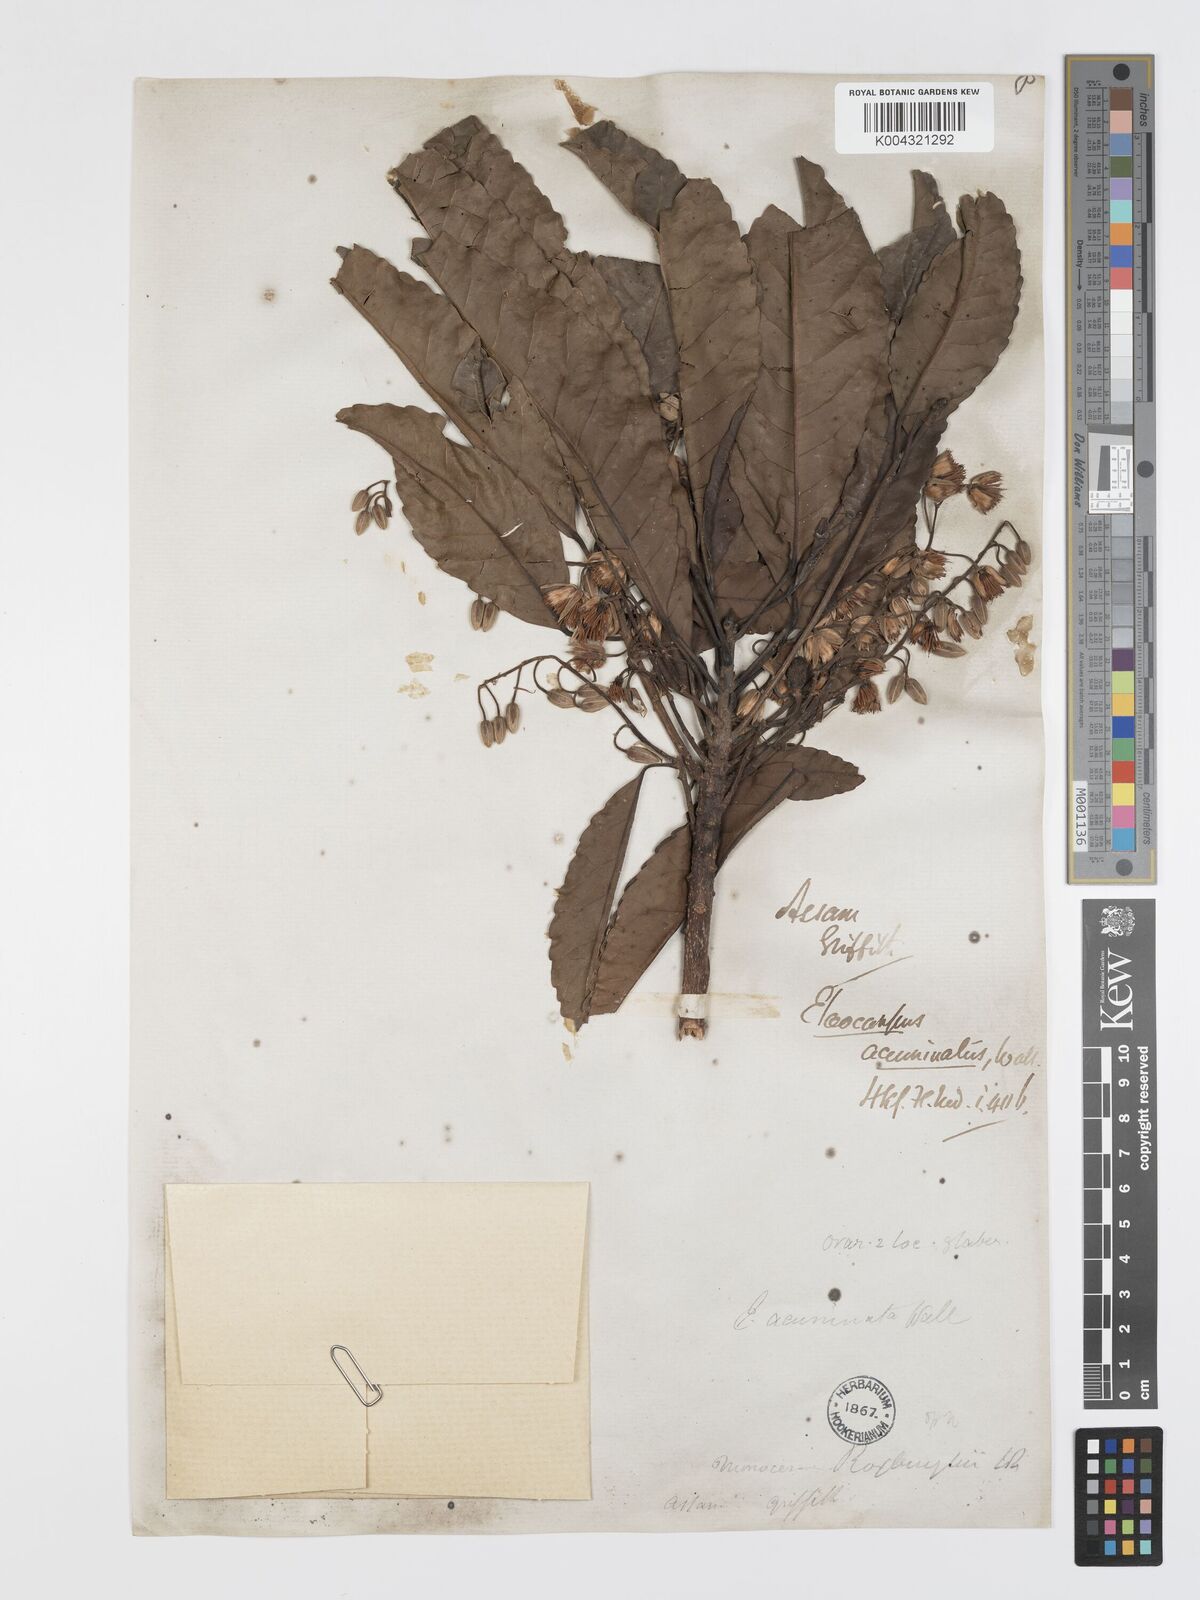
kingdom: Plantae
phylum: Tracheophyta
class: Magnoliopsida
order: Oxalidales
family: Elaeocarpaceae
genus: Elaeocarpus
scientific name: Elaeocarpus
